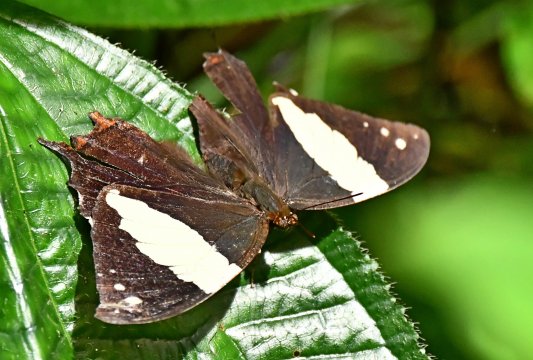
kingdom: Animalia
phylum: Arthropoda
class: Insecta
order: Lepidoptera
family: Nymphalidae
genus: Hypna
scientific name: Hypna clytemnestra
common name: Silver-studded Leafwing
